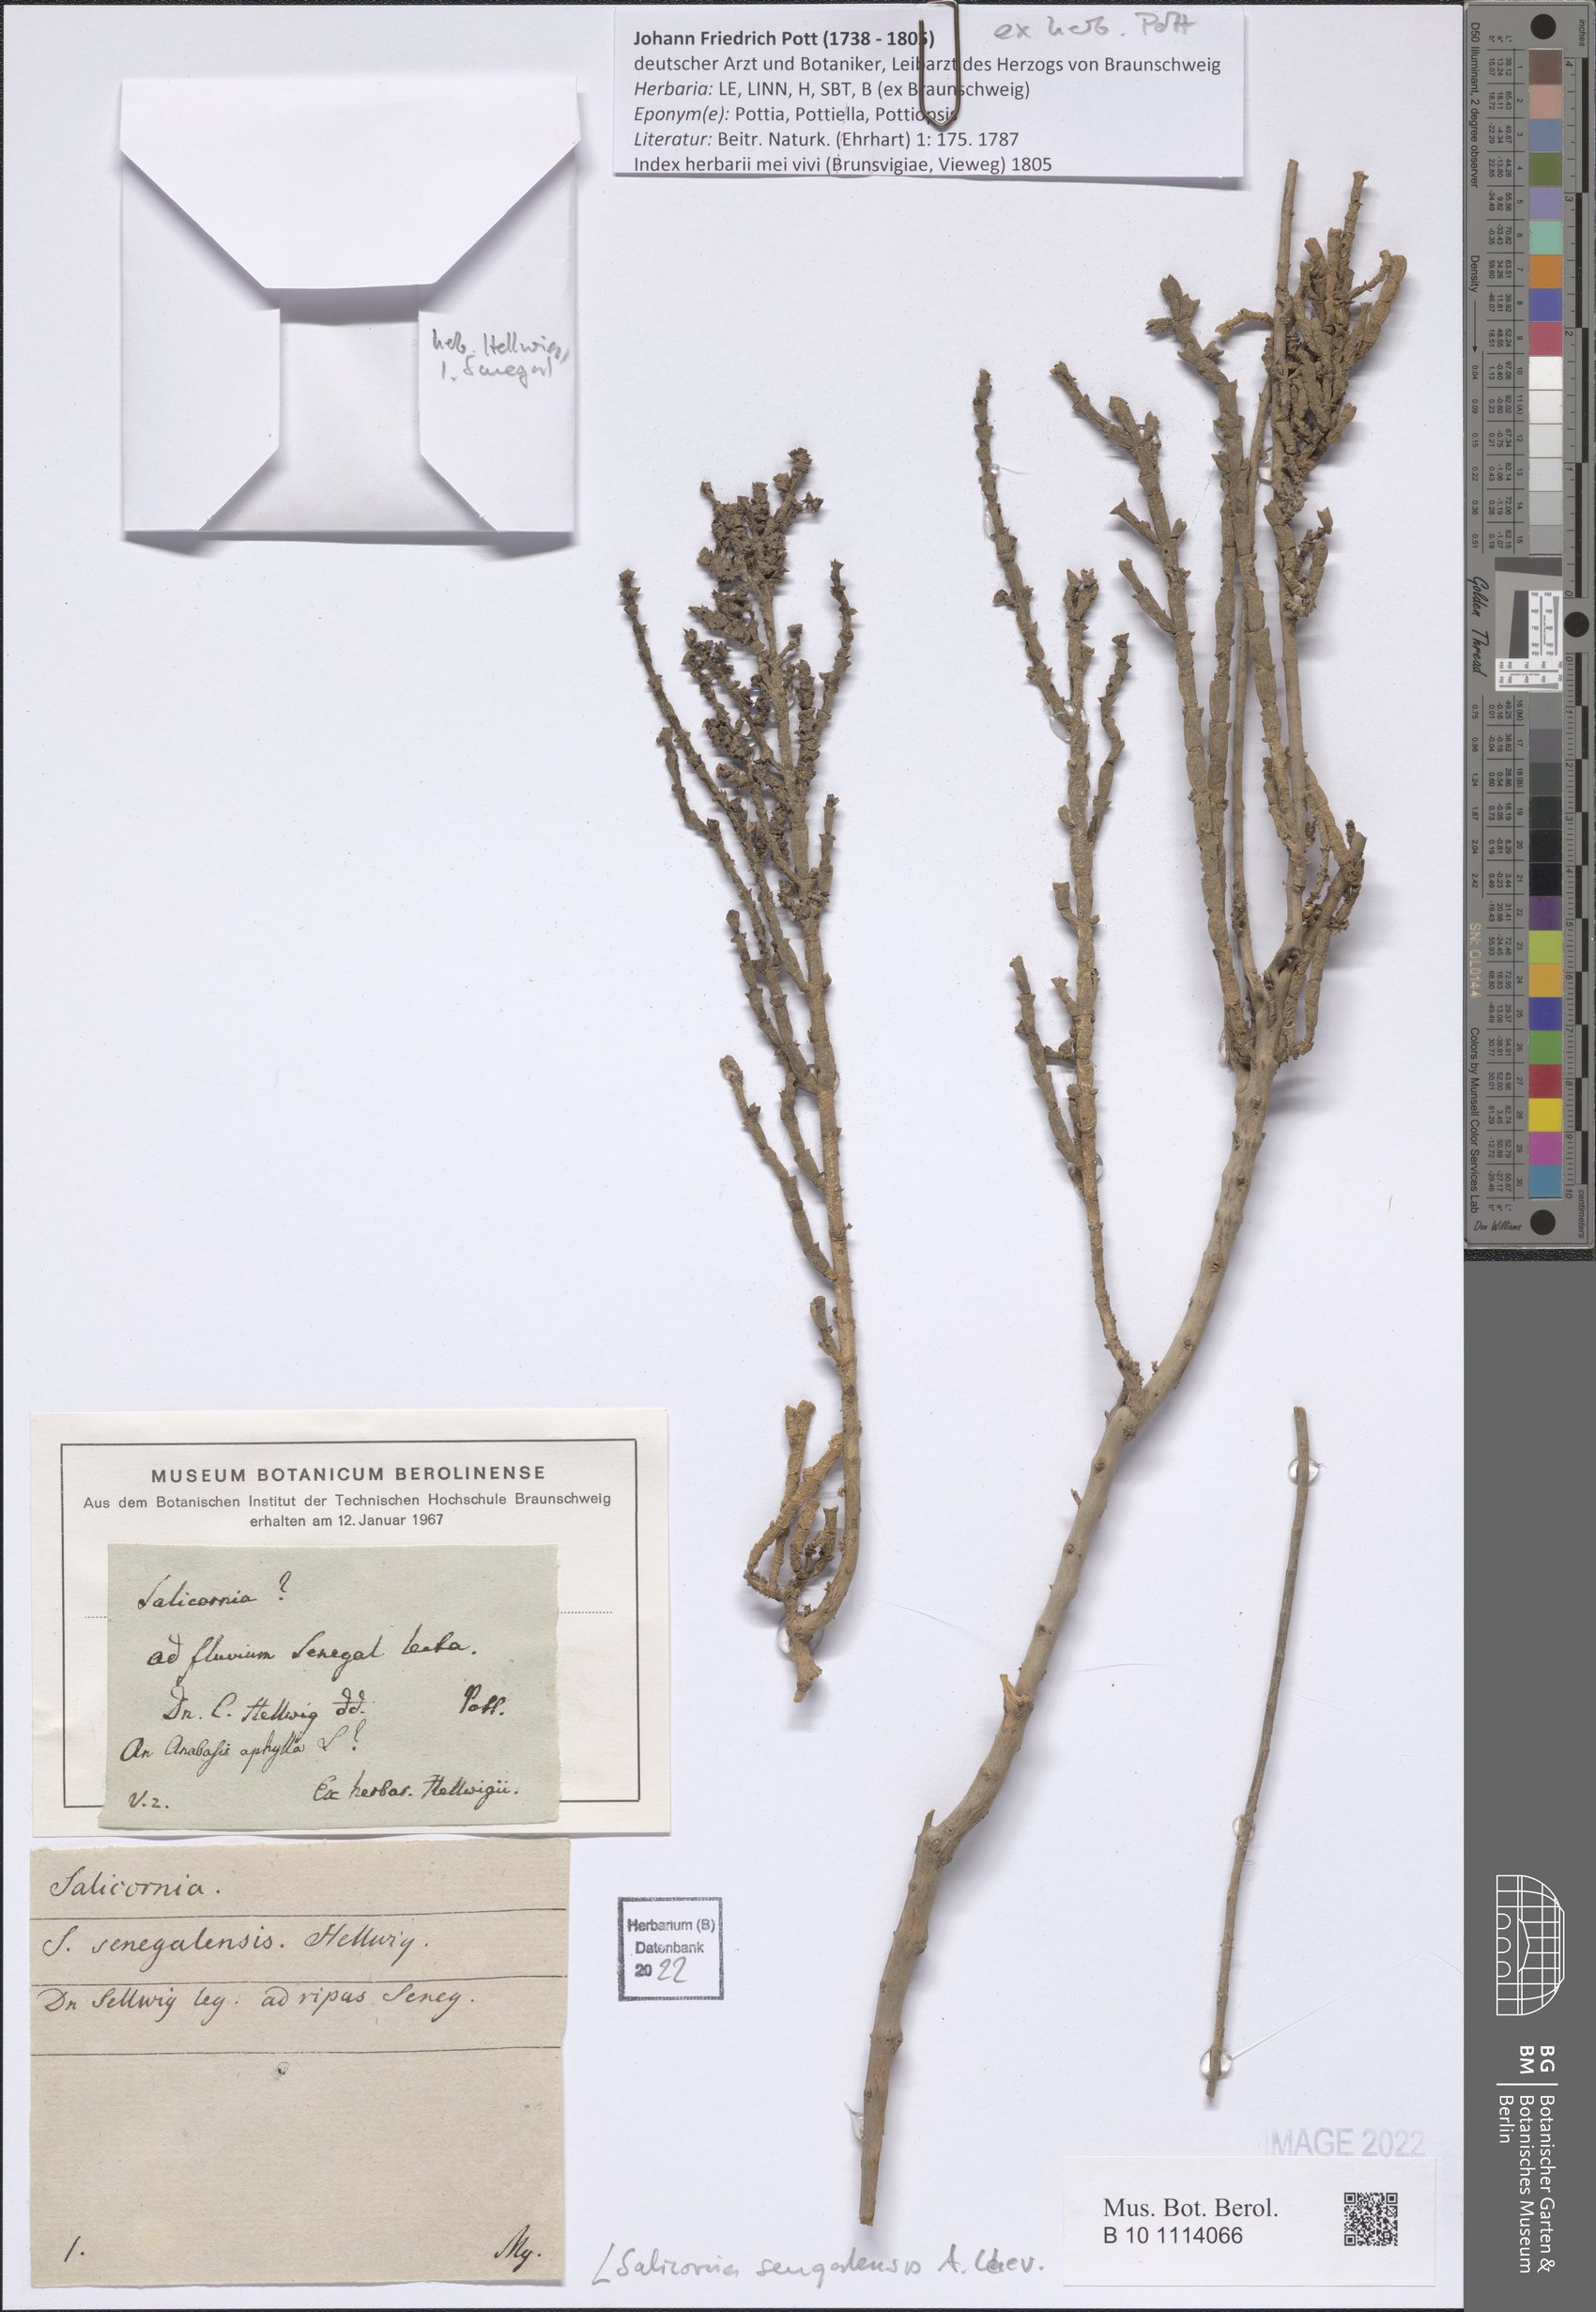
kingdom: Plantae
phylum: Tracheophyta
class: Magnoliopsida
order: Caryophyllales
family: Amaranthaceae
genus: Salicornia
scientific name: Salicornia senegalensis
